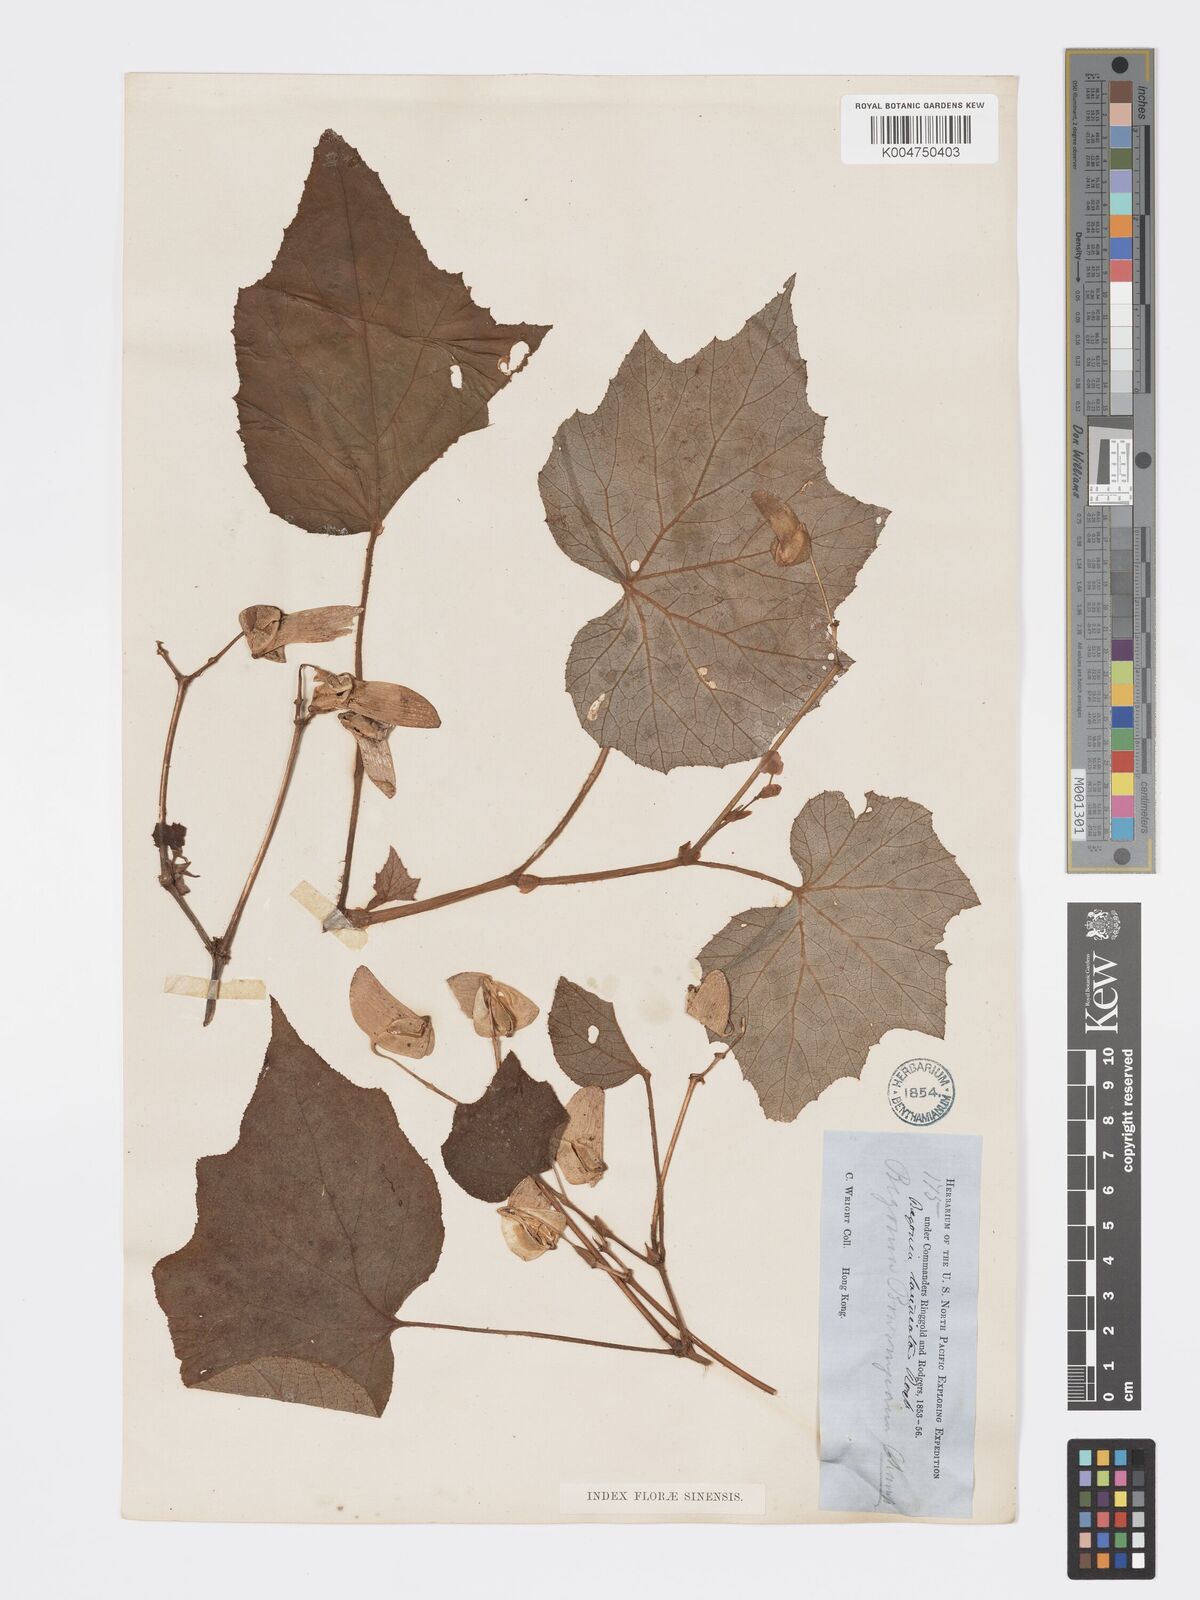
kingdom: Plantae
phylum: Tracheophyta
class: Magnoliopsida
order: Cucurbitales
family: Begoniaceae
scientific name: Begoniaceae
